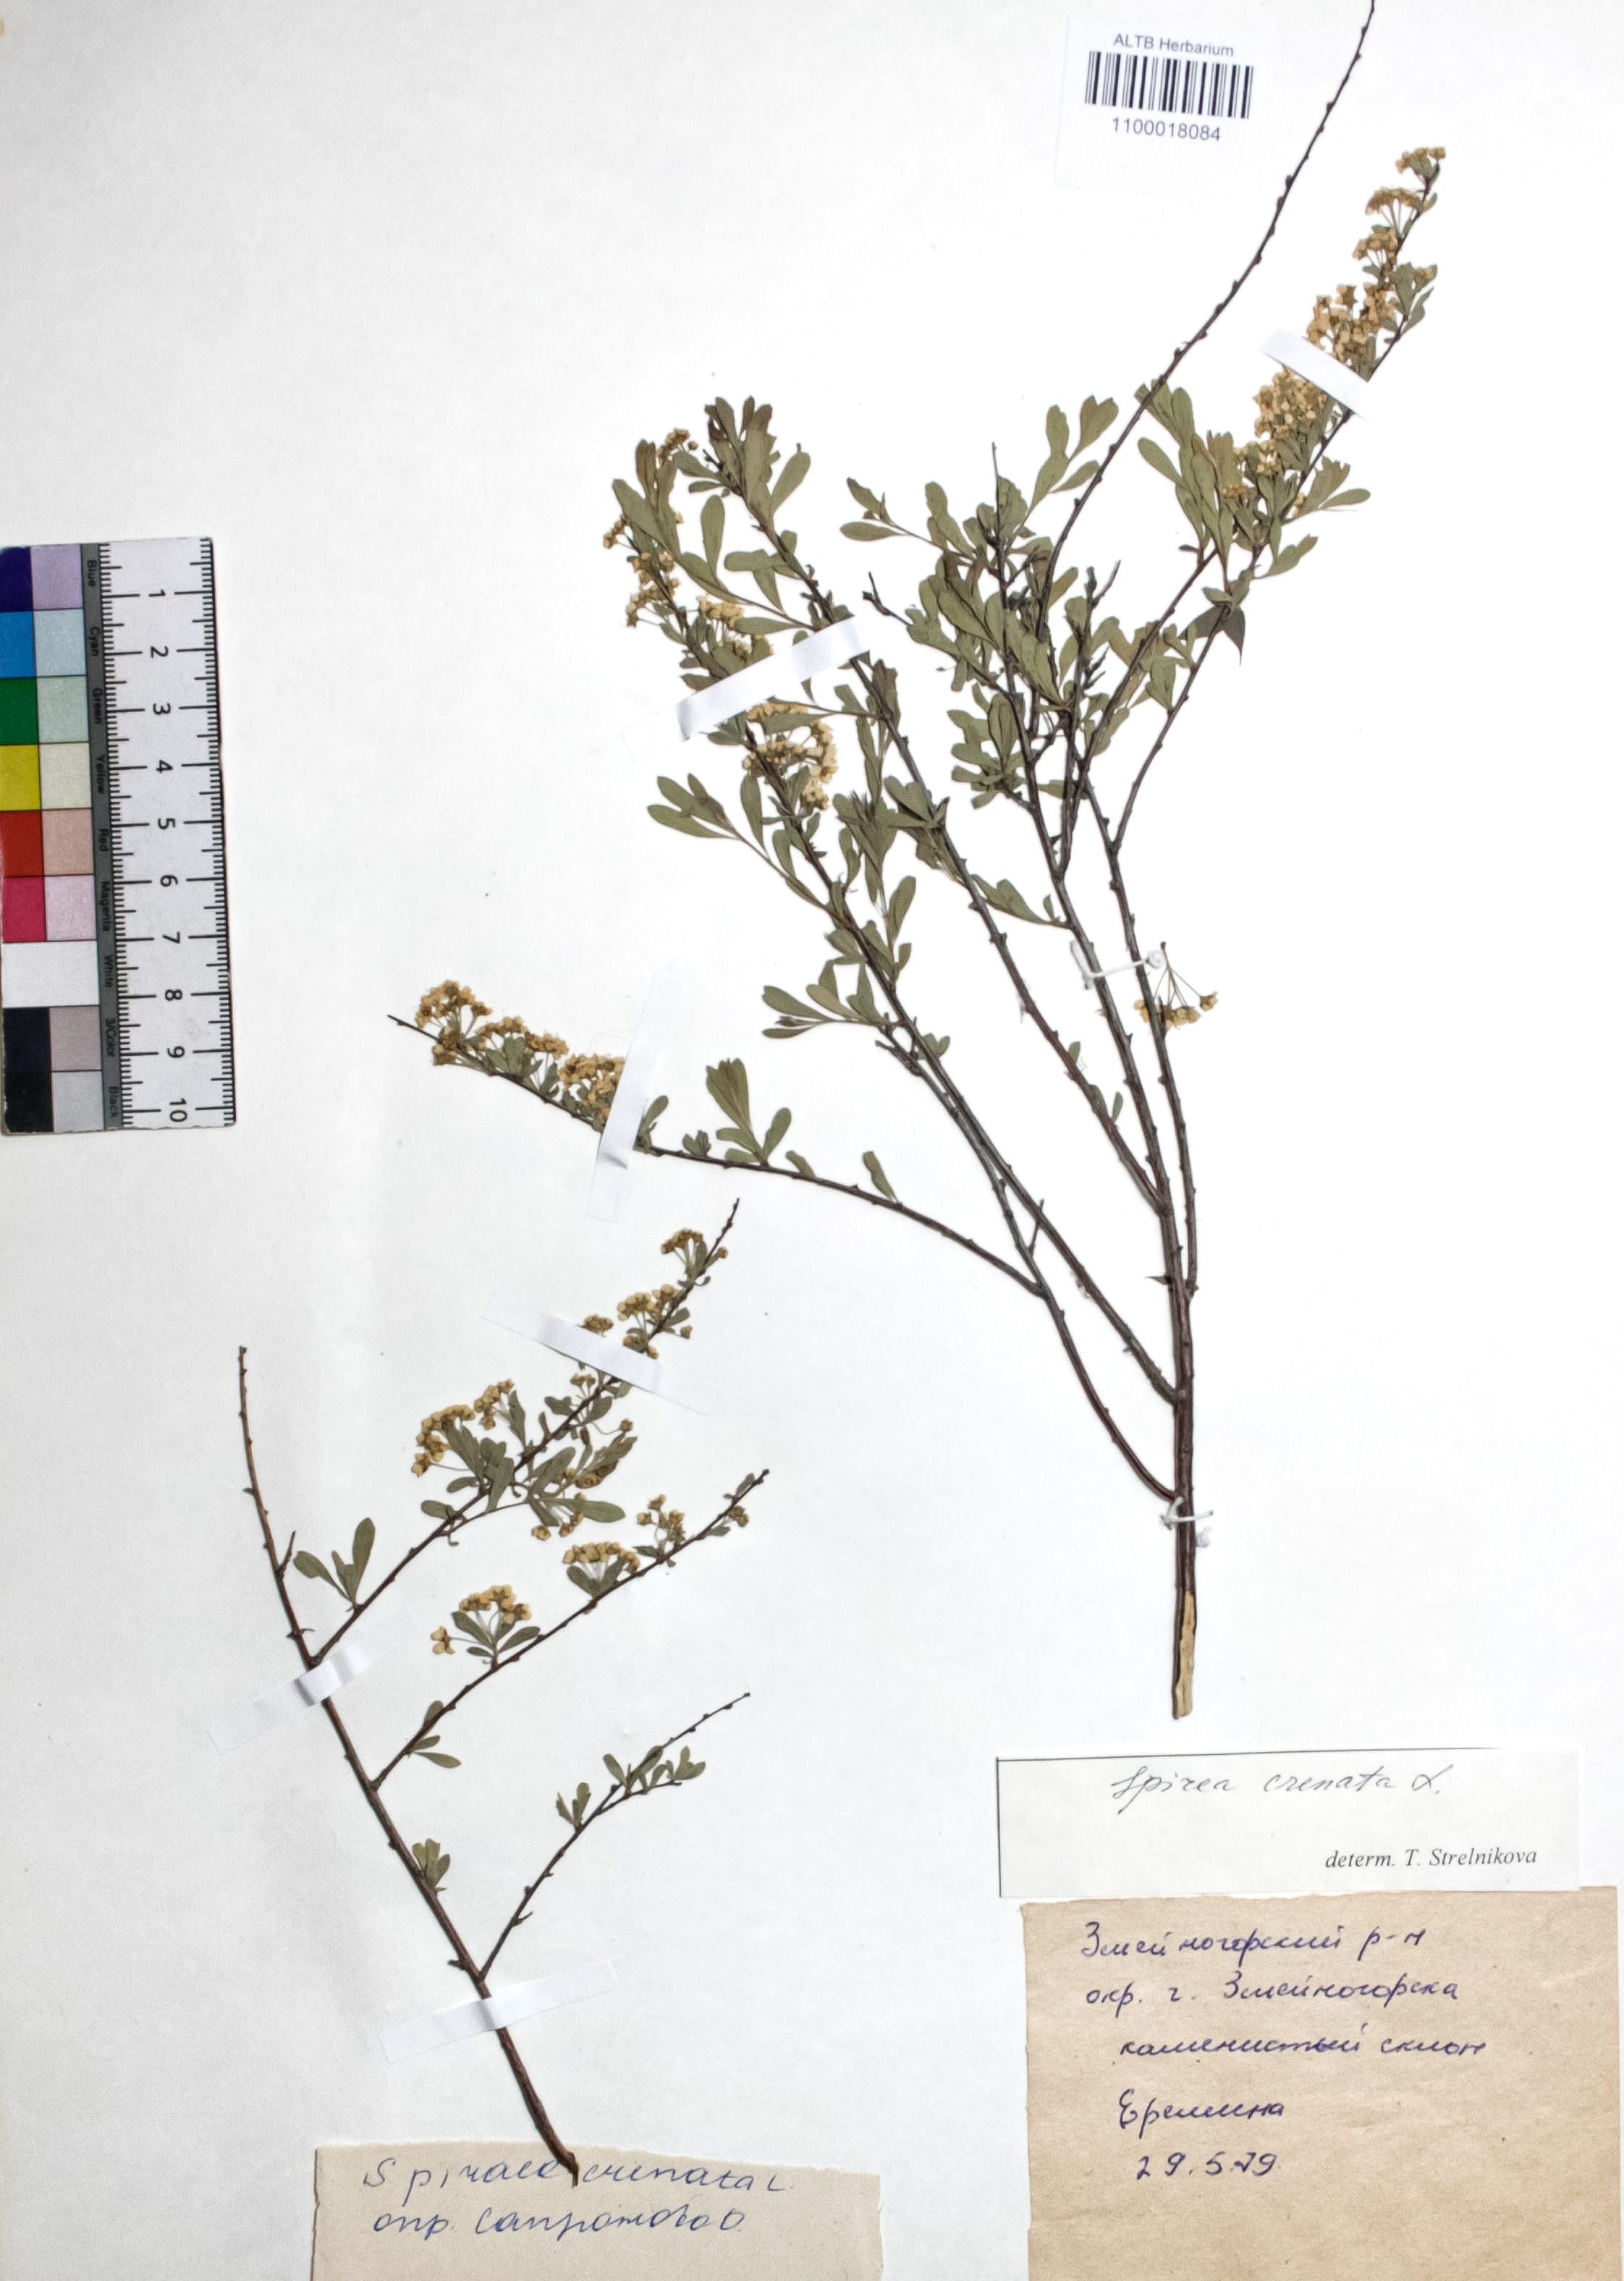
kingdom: Plantae
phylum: Tracheophyta
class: Magnoliopsida
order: Rosales
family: Rosaceae
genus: Spiraea
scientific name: Spiraea crenata
